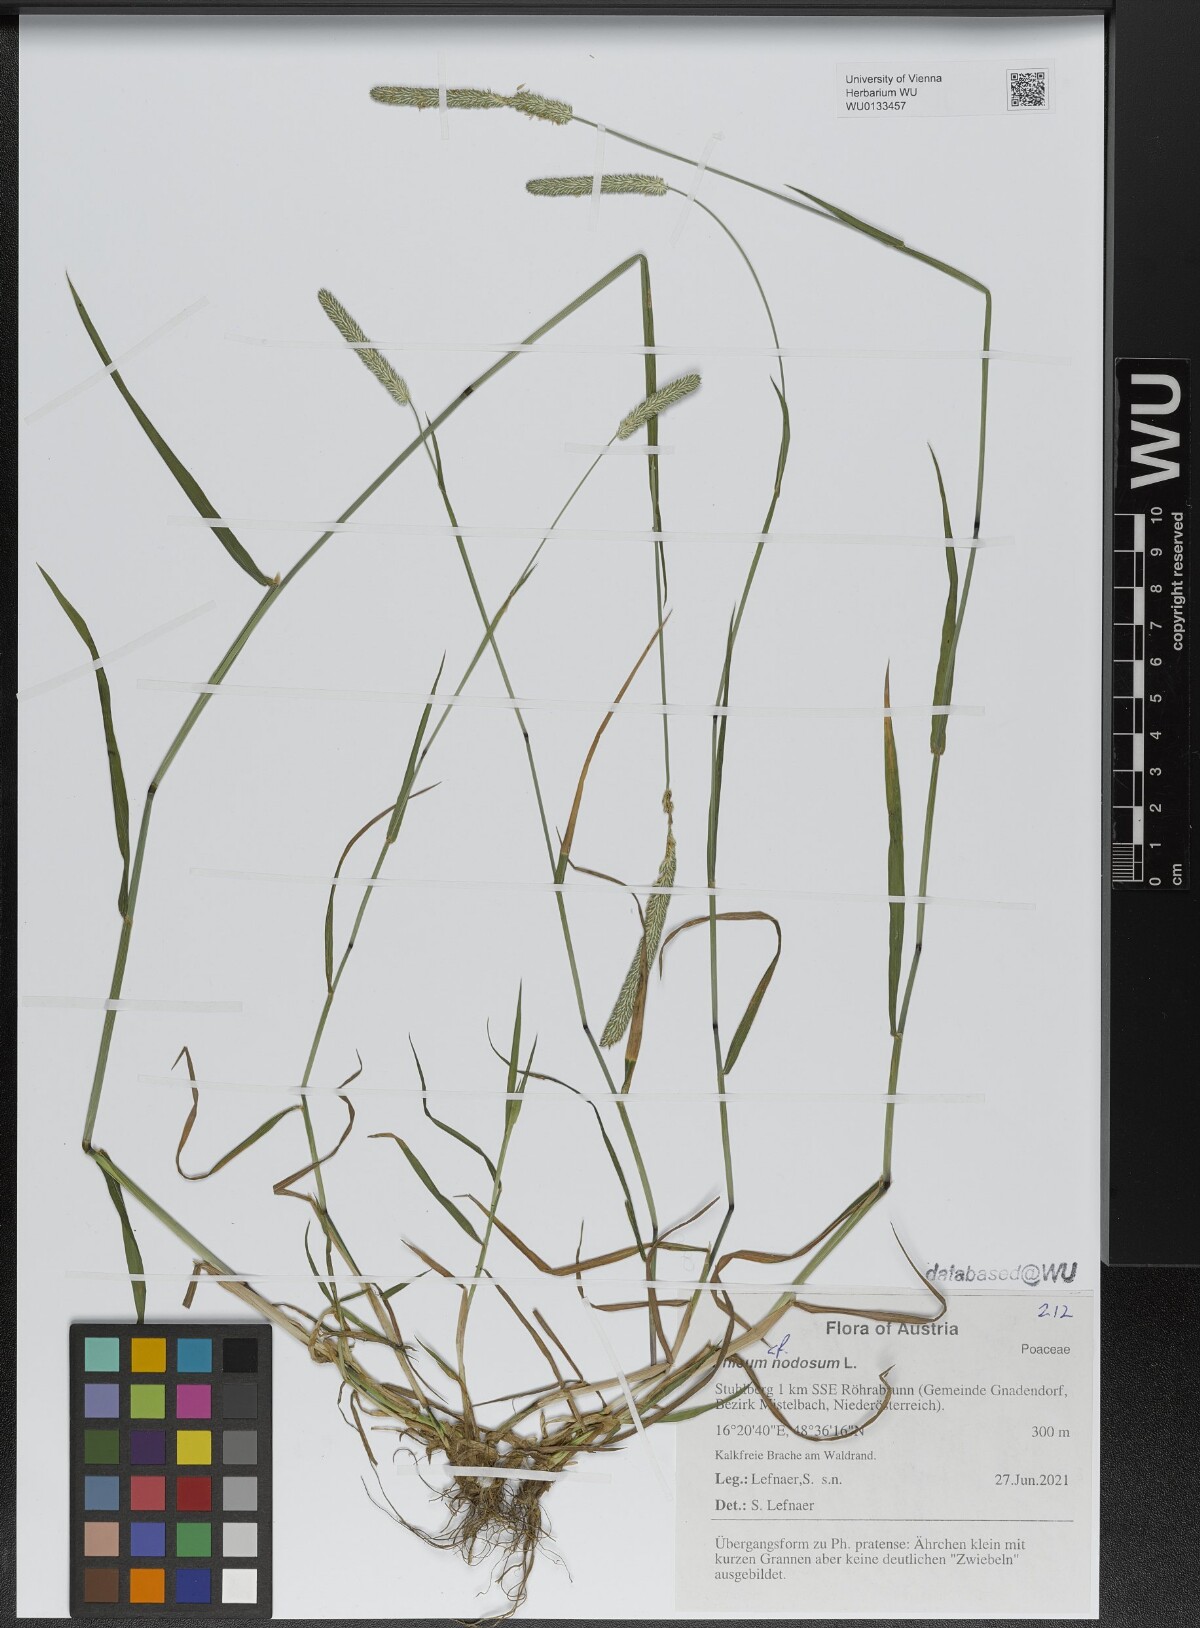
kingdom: Plantae
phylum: Tracheophyta
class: Liliopsida
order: Poales
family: Poaceae
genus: Phleum
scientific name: Phleum pratense
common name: Timothy grass
